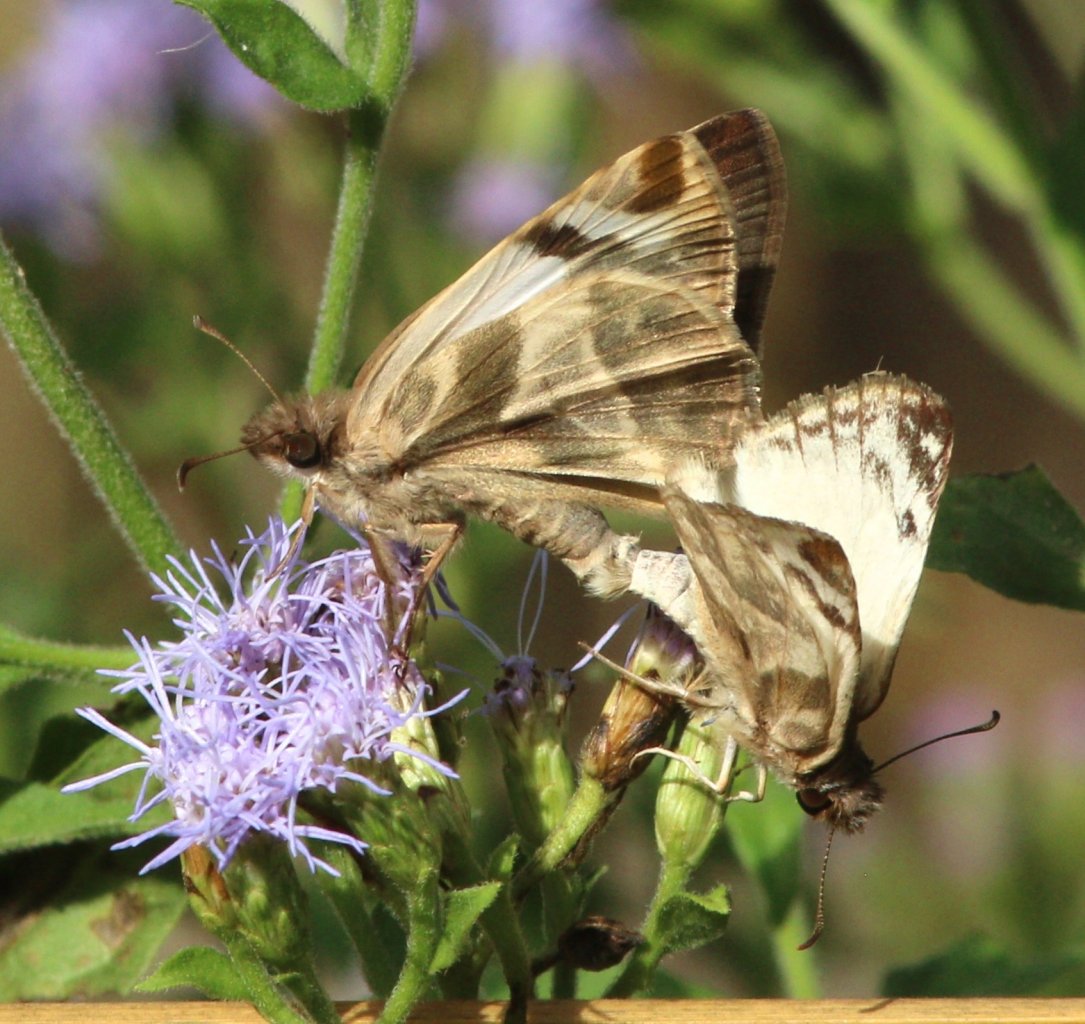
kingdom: Animalia
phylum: Arthropoda
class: Insecta
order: Lepidoptera
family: Hesperiidae
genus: Heliopetes
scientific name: Heliopetes macaira
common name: Turk's-cap White-Skipper
